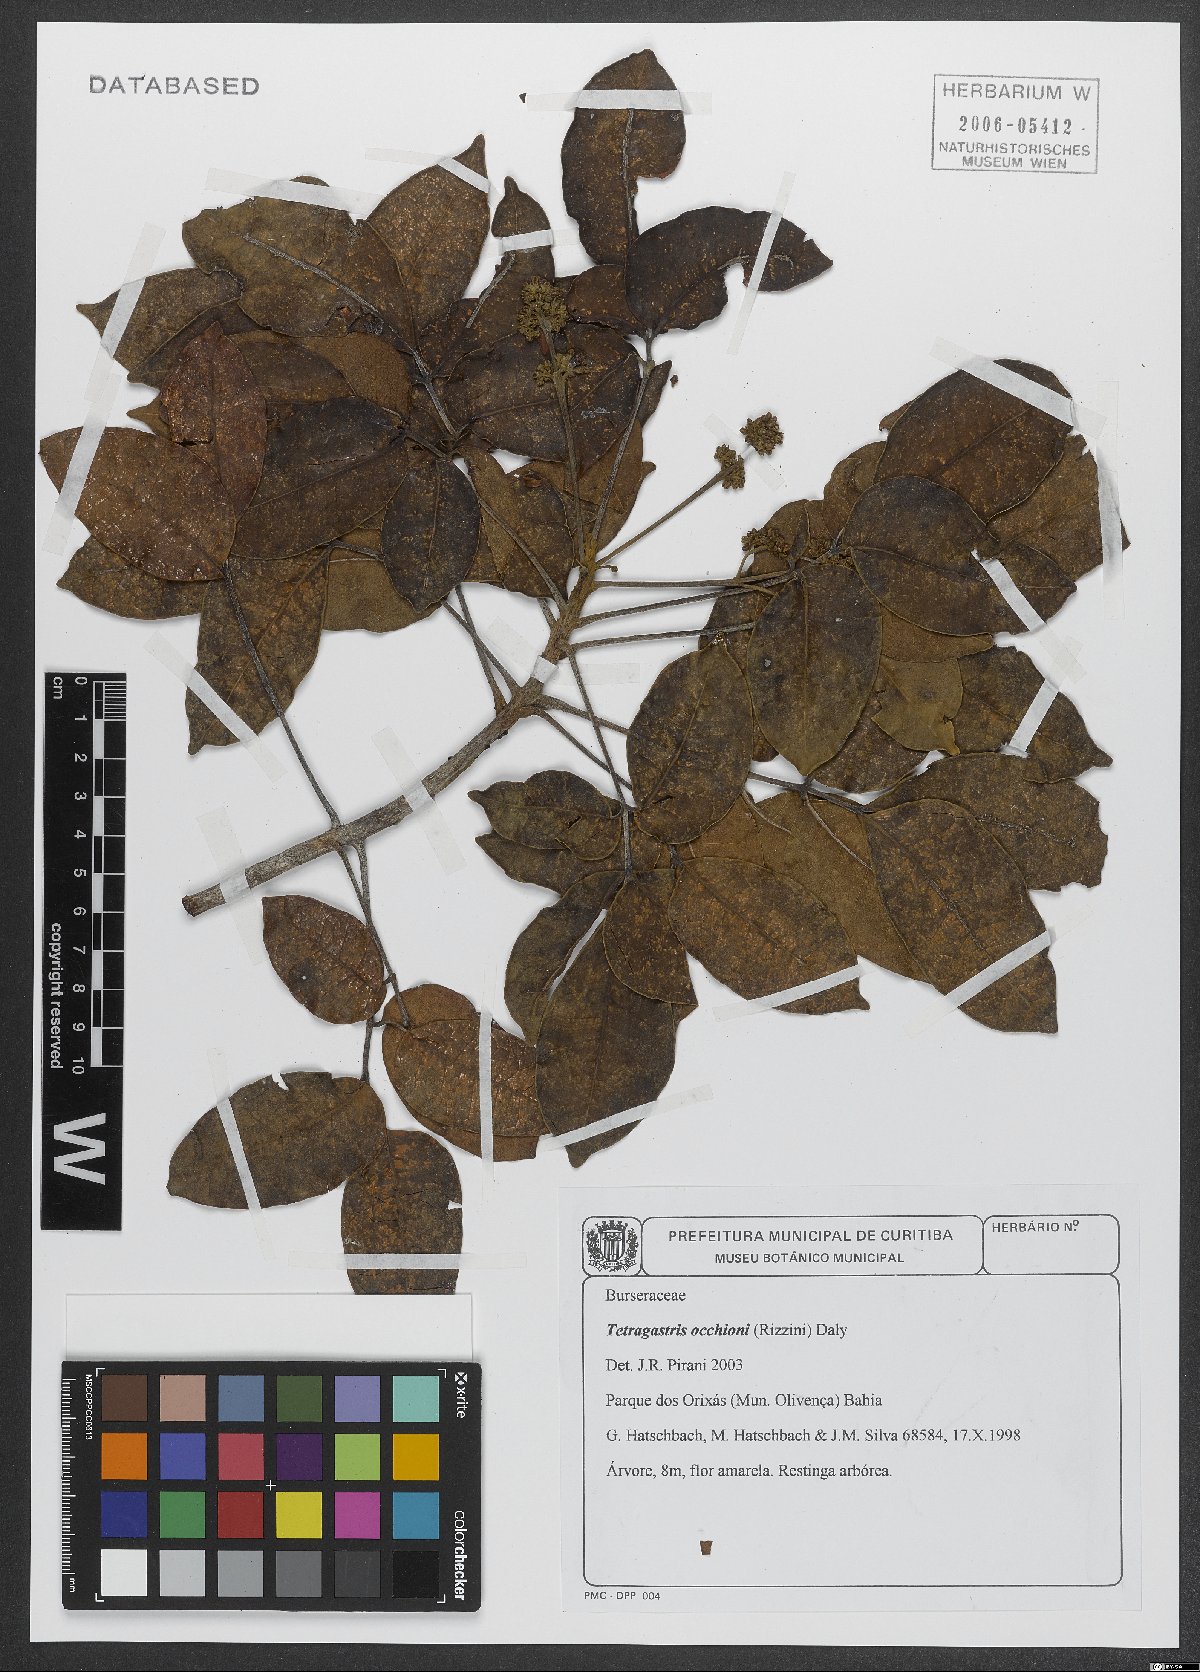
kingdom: Plantae
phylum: Tracheophyta
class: Magnoliopsida
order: Sapindales
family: Burseraceae
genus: Tetragastris
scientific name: Tetragastris occhionii
